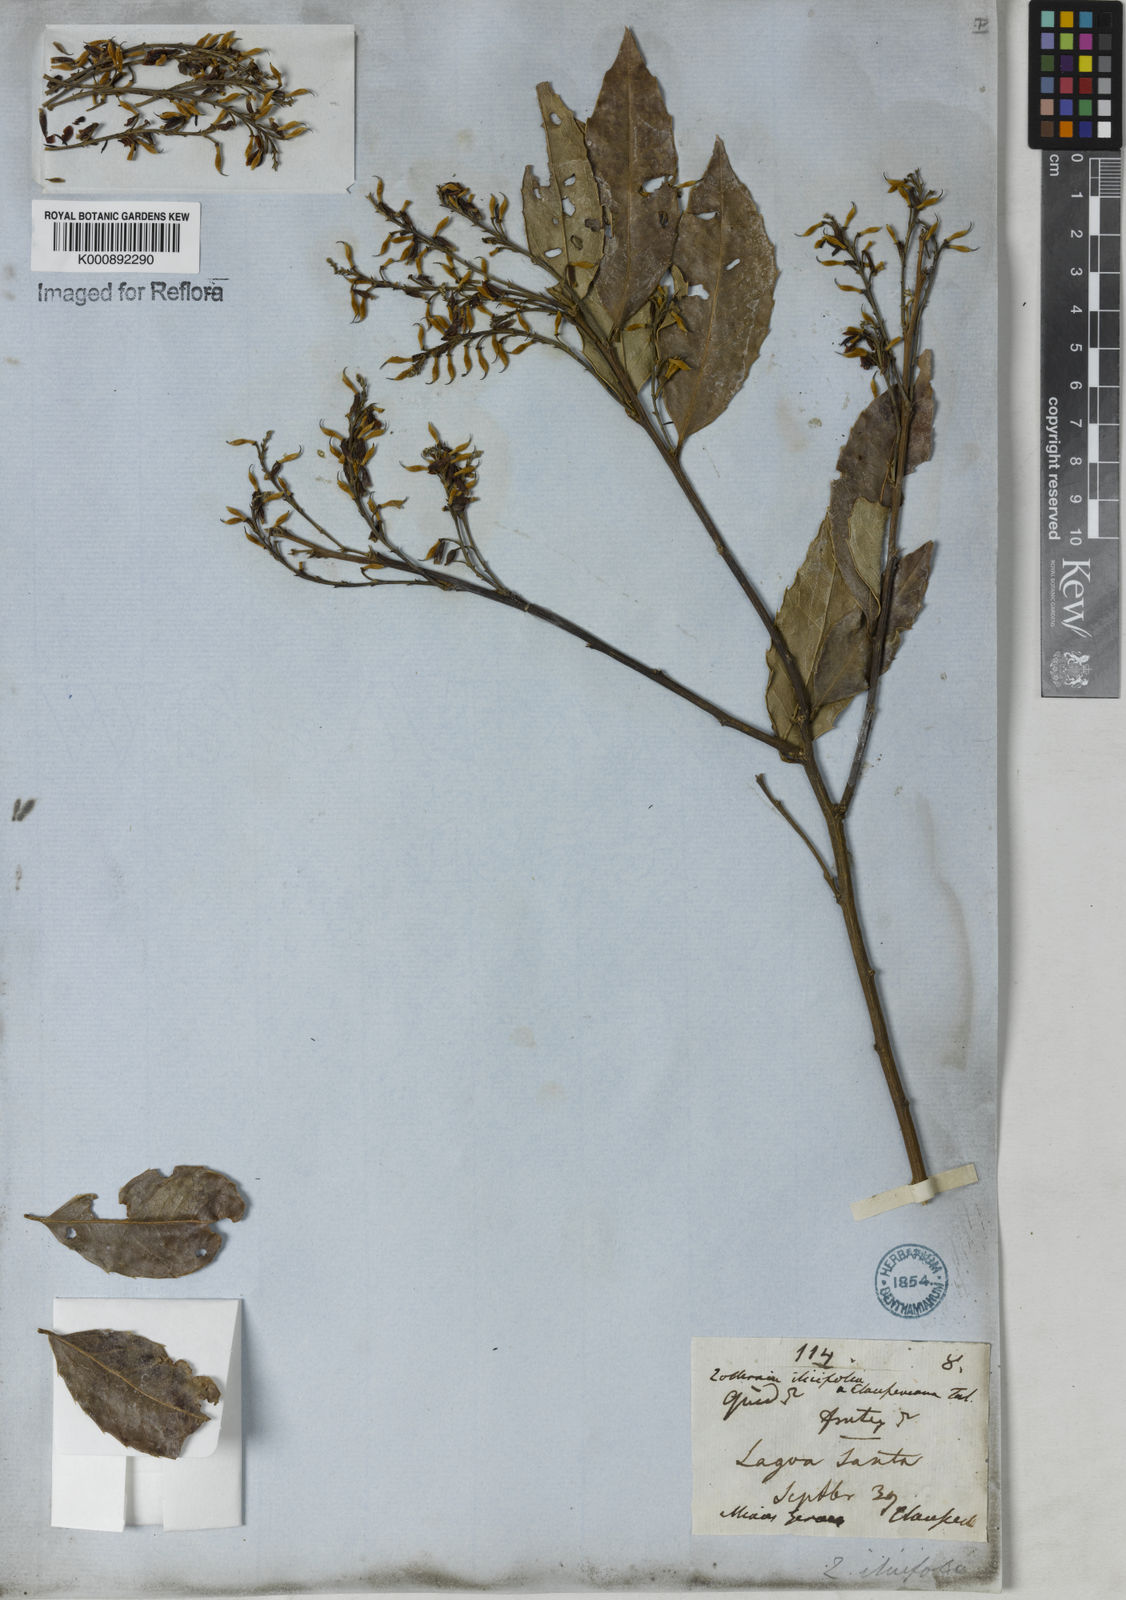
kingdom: Plantae
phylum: Tracheophyta
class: Magnoliopsida
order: Fabales
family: Fabaceae
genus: Zollernia
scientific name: Zollernia ilicifolia
